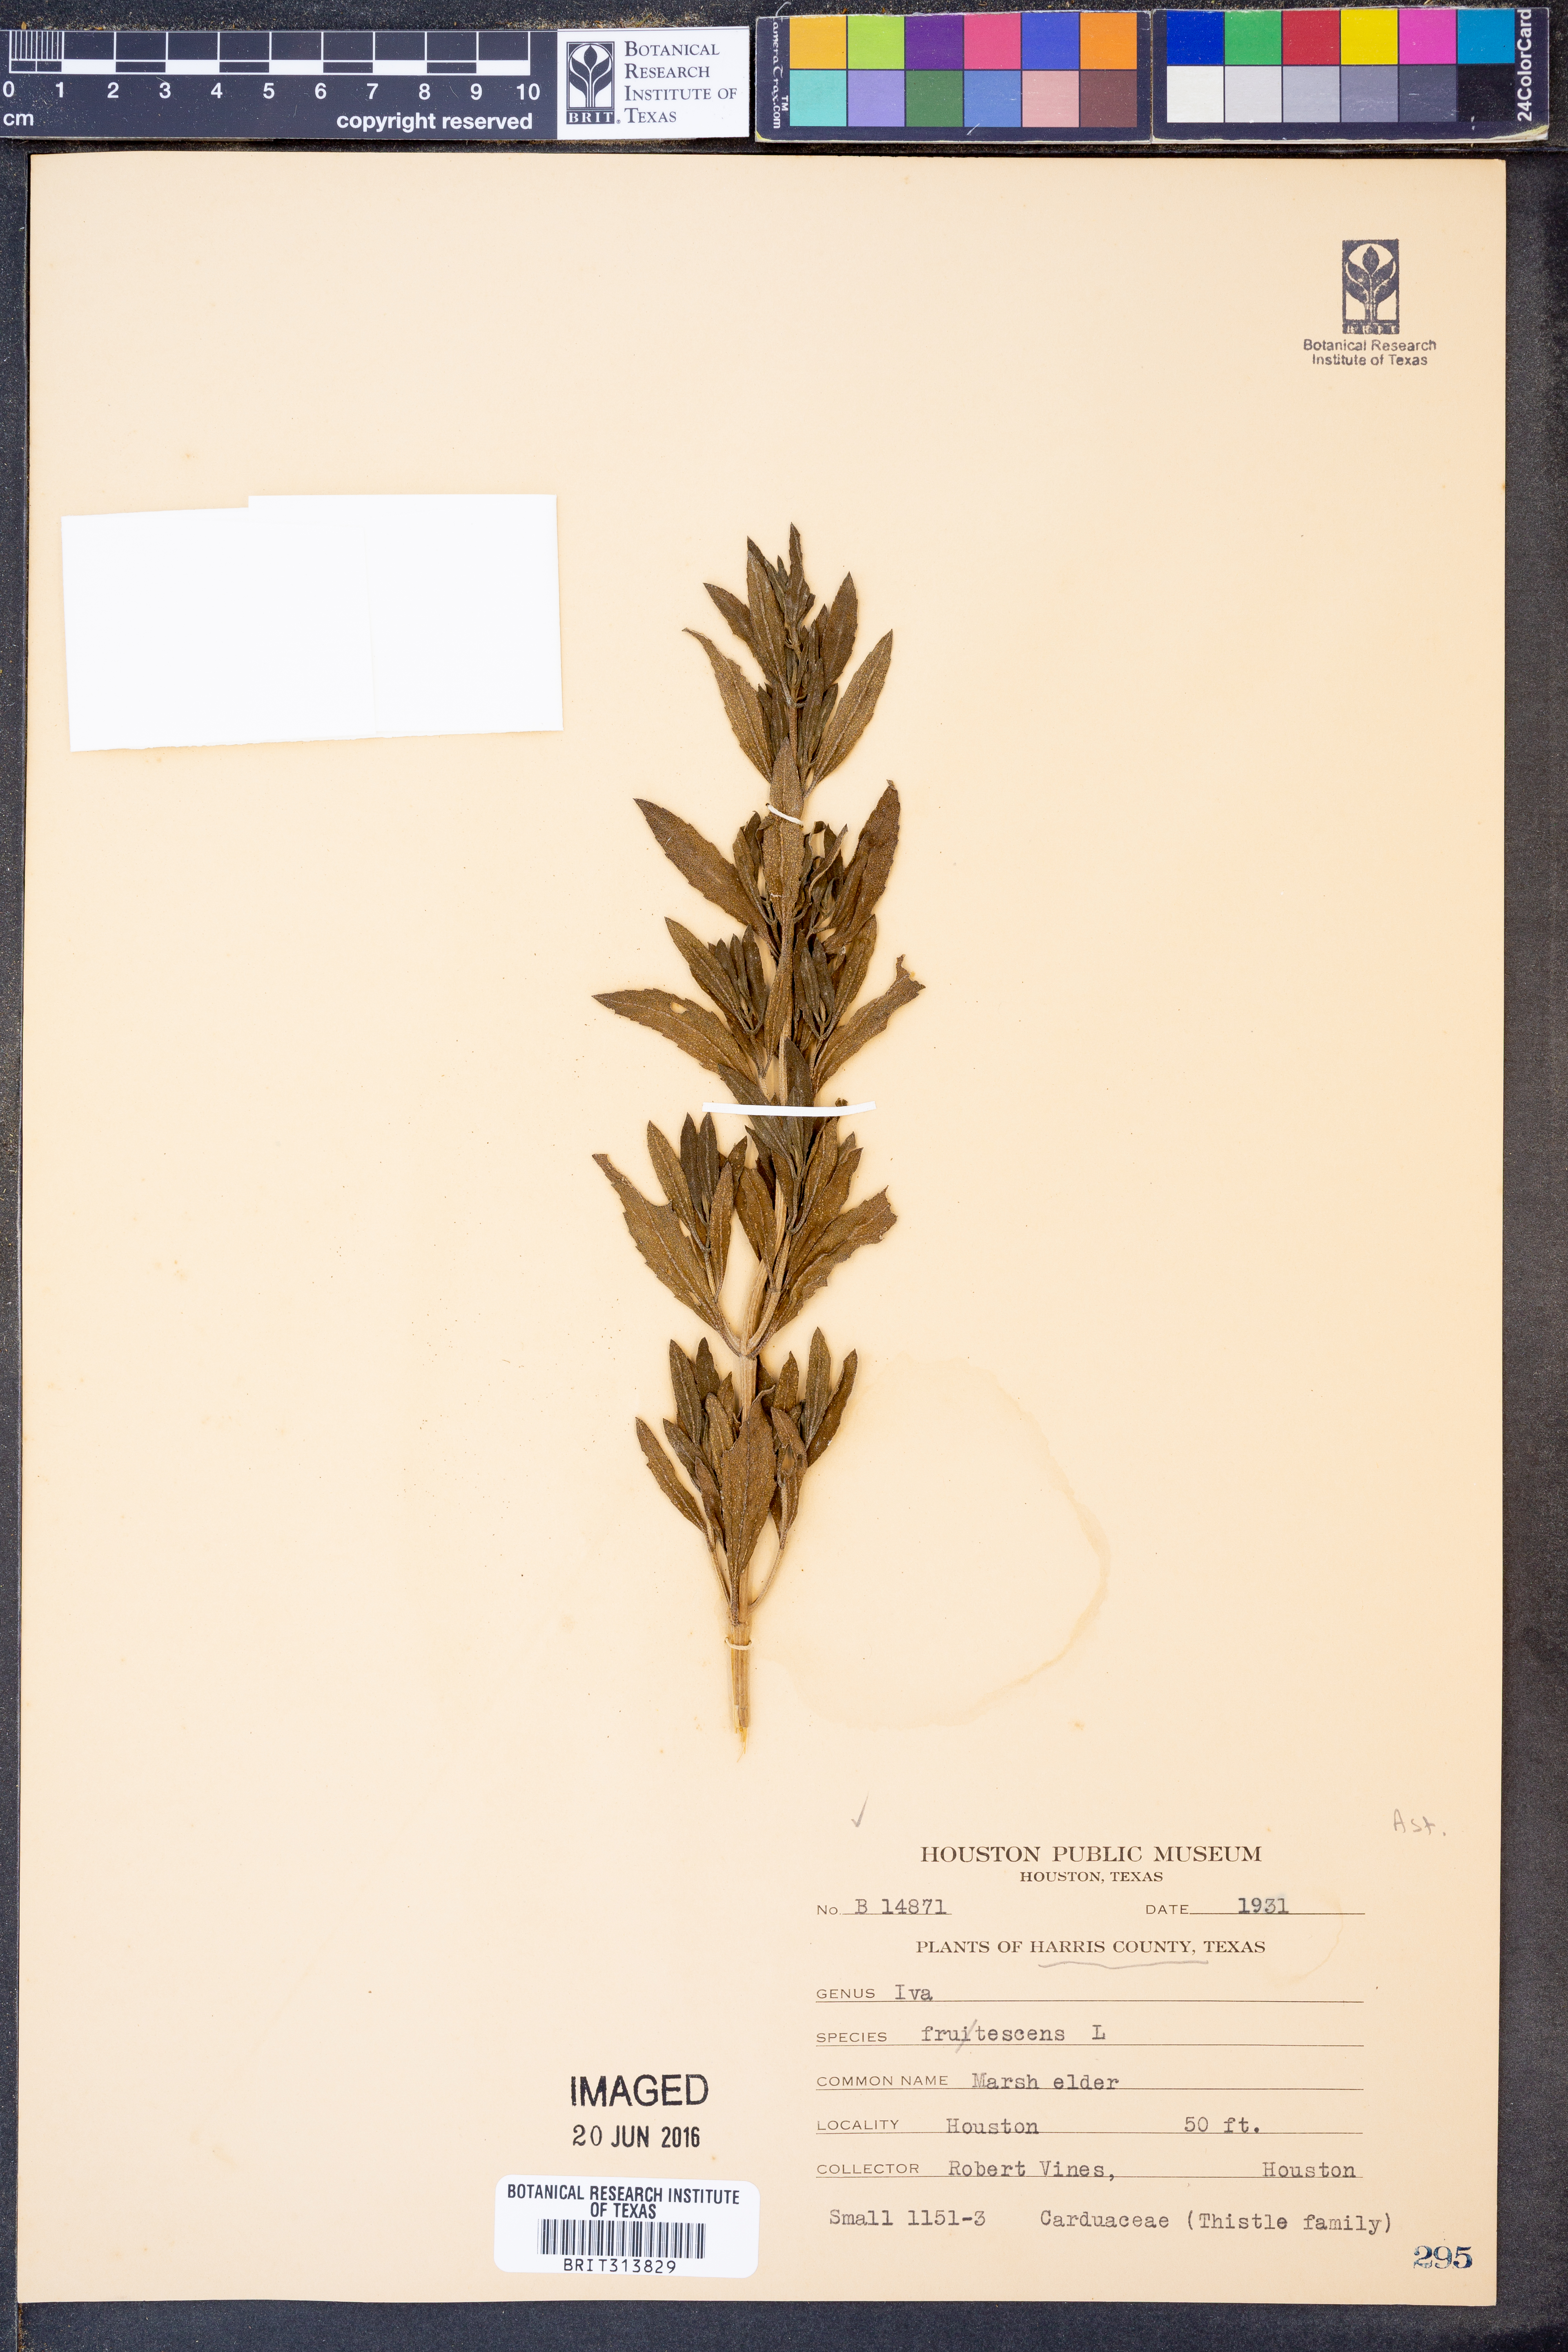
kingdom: Plantae
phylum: Tracheophyta
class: Magnoliopsida
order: Asterales
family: Asteraceae
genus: Iva
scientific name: Iva frutescens
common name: Big-leaved marsh-elder
